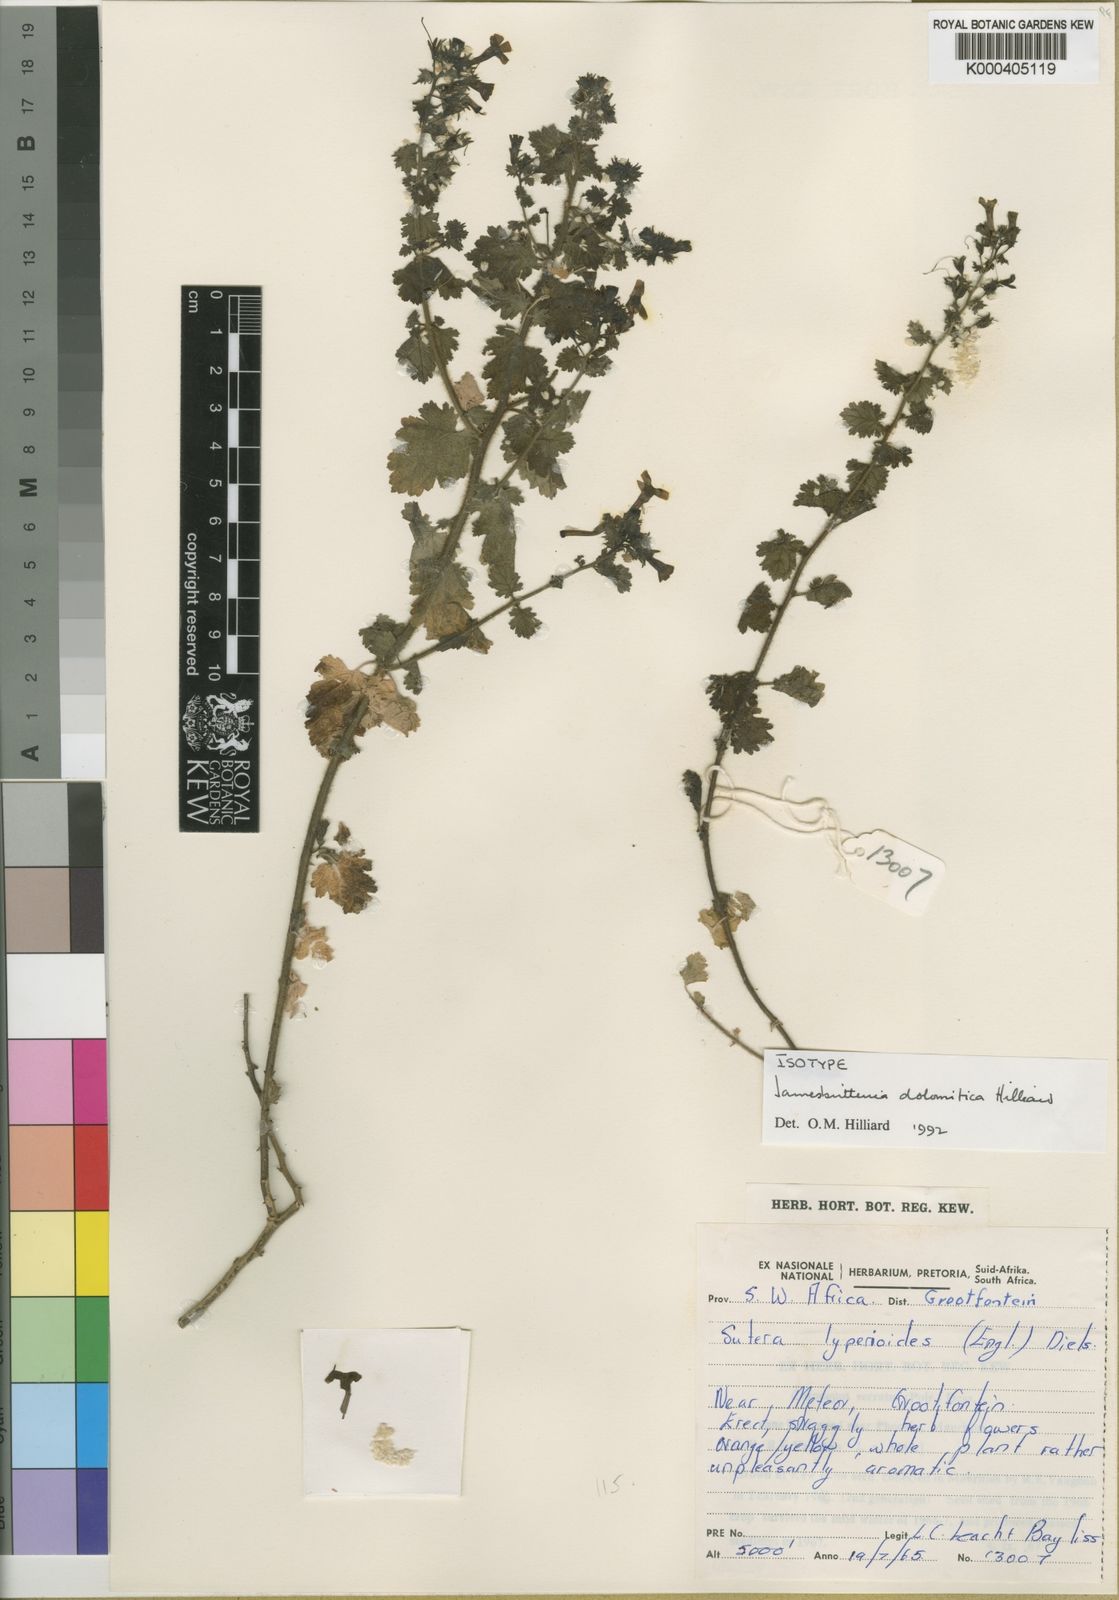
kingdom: Plantae
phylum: Tracheophyta
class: Magnoliopsida
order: Lamiales
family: Scrophulariaceae
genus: Jamesbrittenia
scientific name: Jamesbrittenia dolomitica
